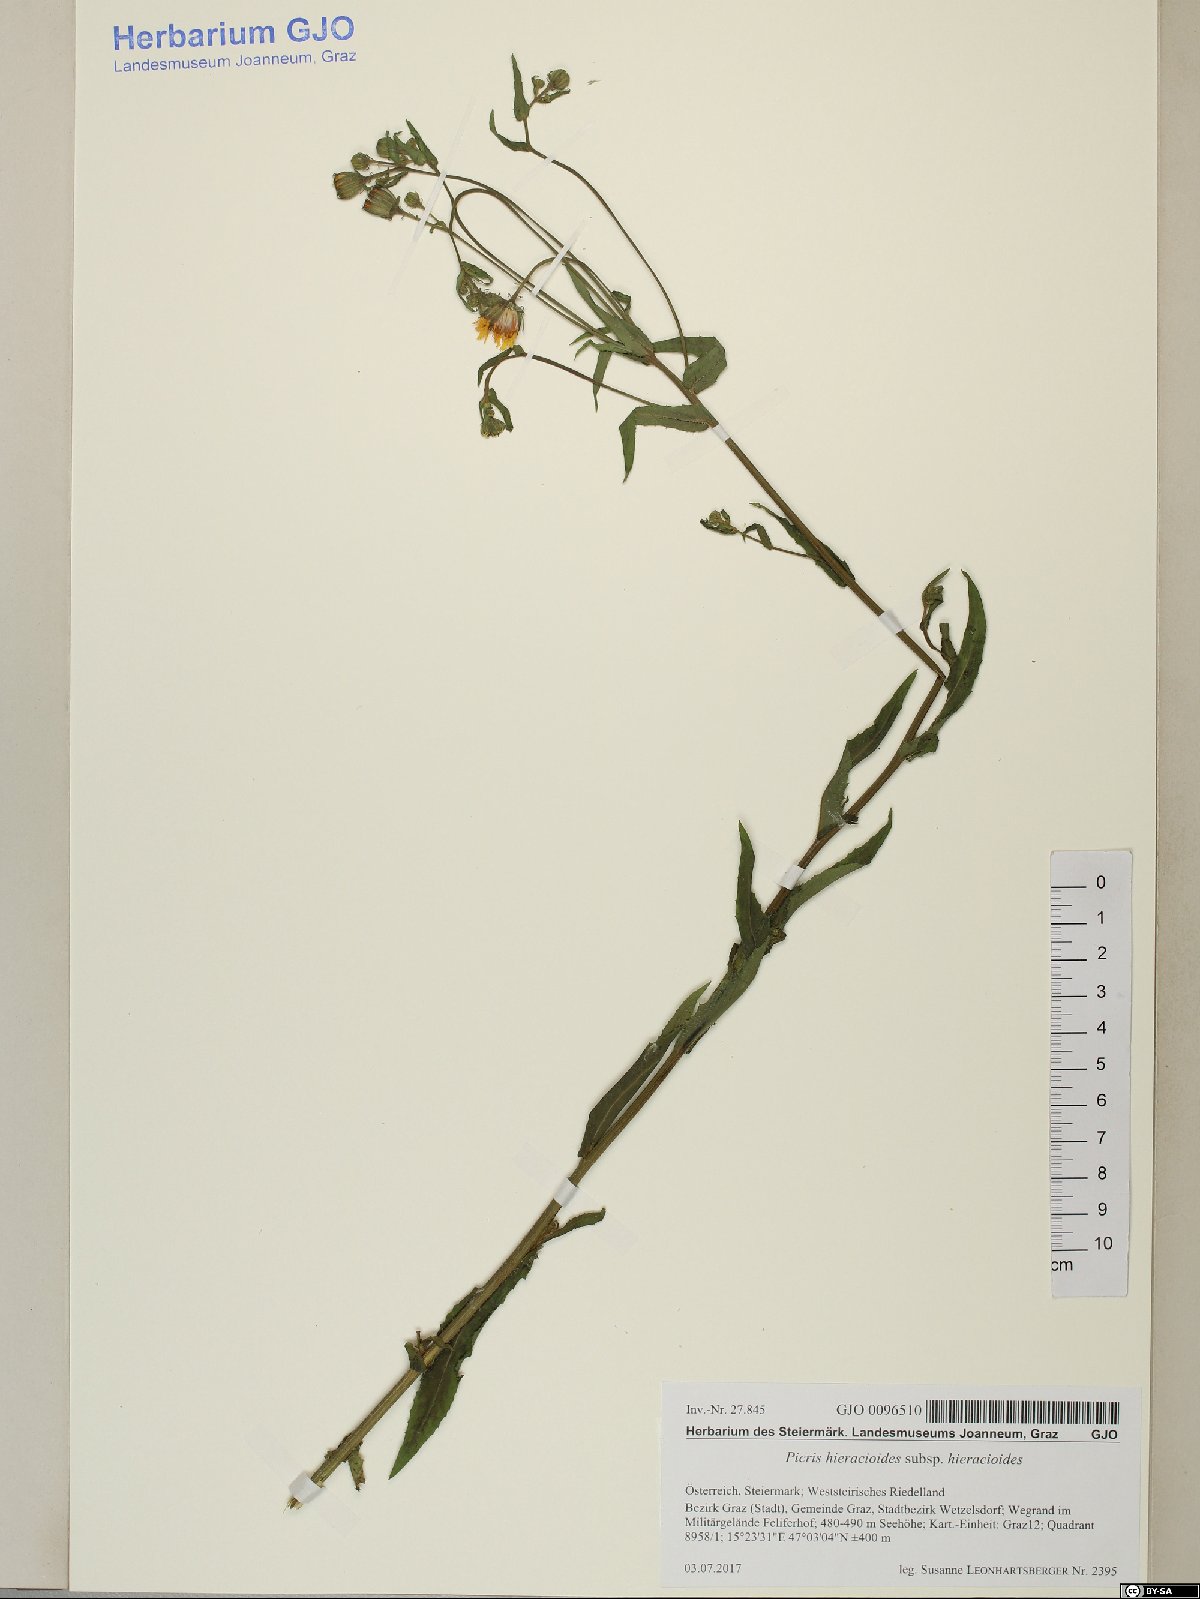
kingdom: Plantae
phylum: Tracheophyta
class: Magnoliopsida
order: Asterales
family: Asteraceae
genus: Picris
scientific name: Picris hieracioides
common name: Hawkweed oxtongue
